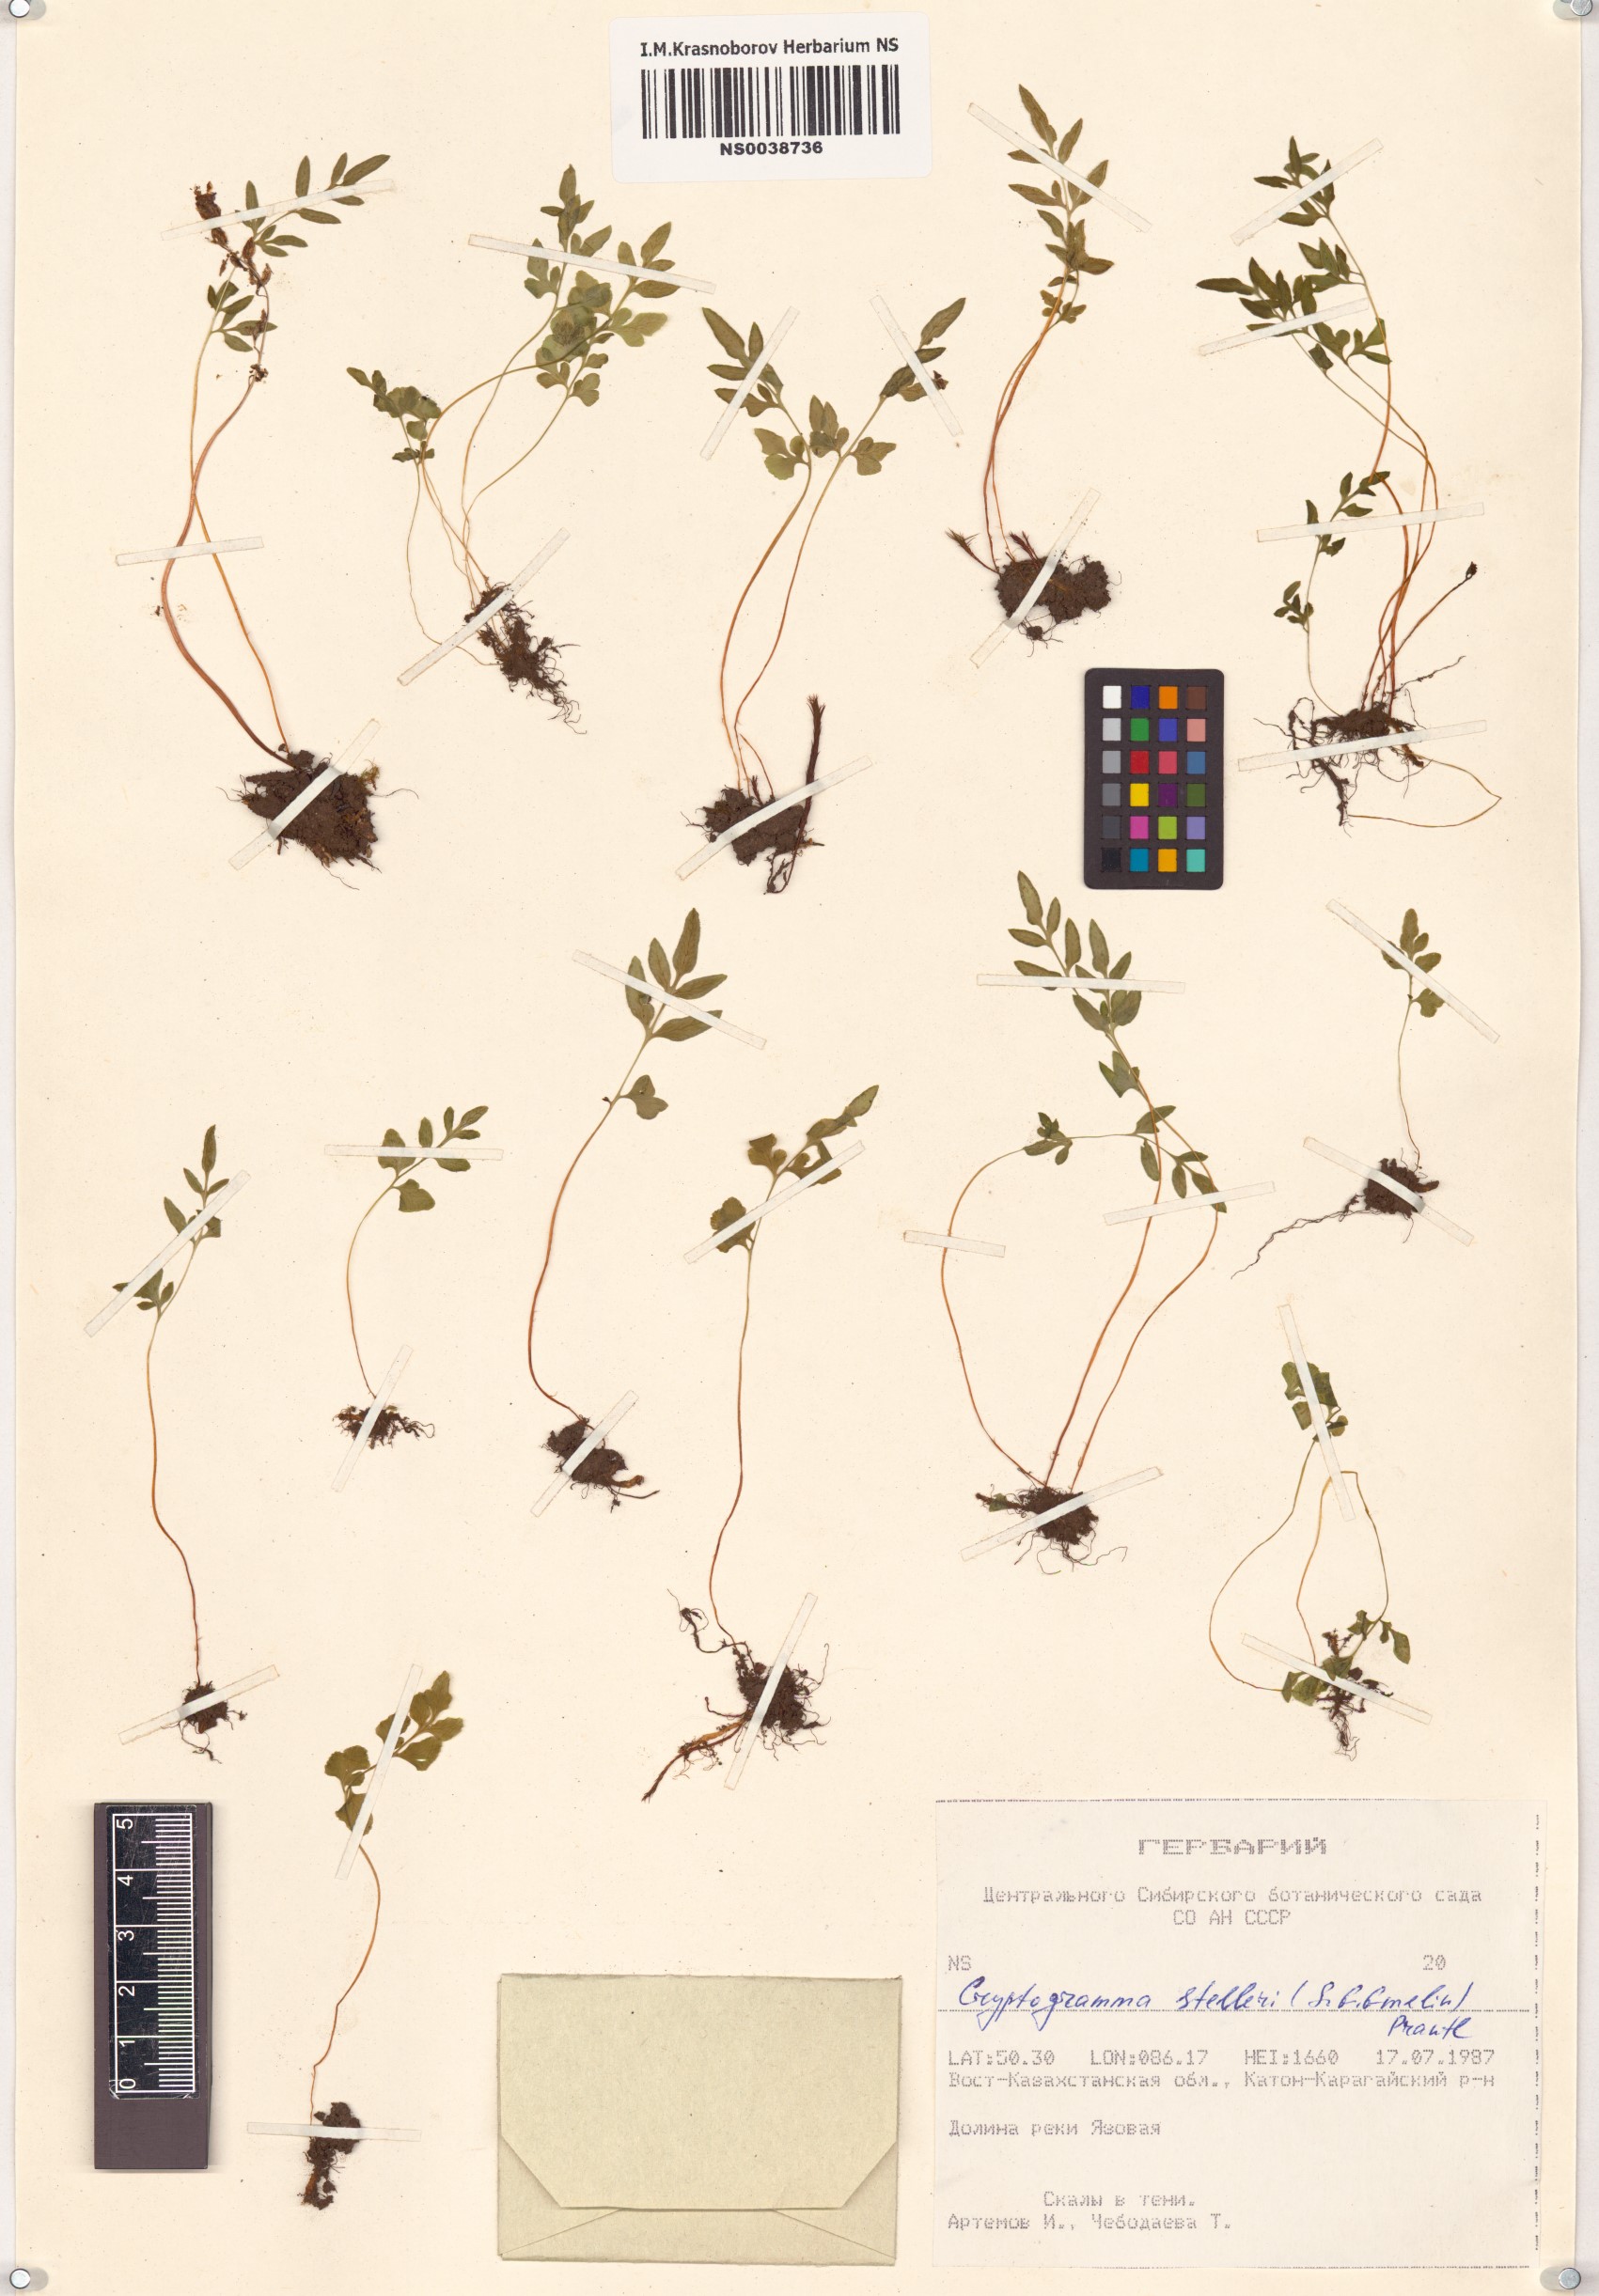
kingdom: Plantae
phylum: Tracheophyta
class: Polypodiopsida
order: Polypodiales
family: Pteridaceae
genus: Cryptogramma
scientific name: Cryptogramma stelleri
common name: Cliff-brake
